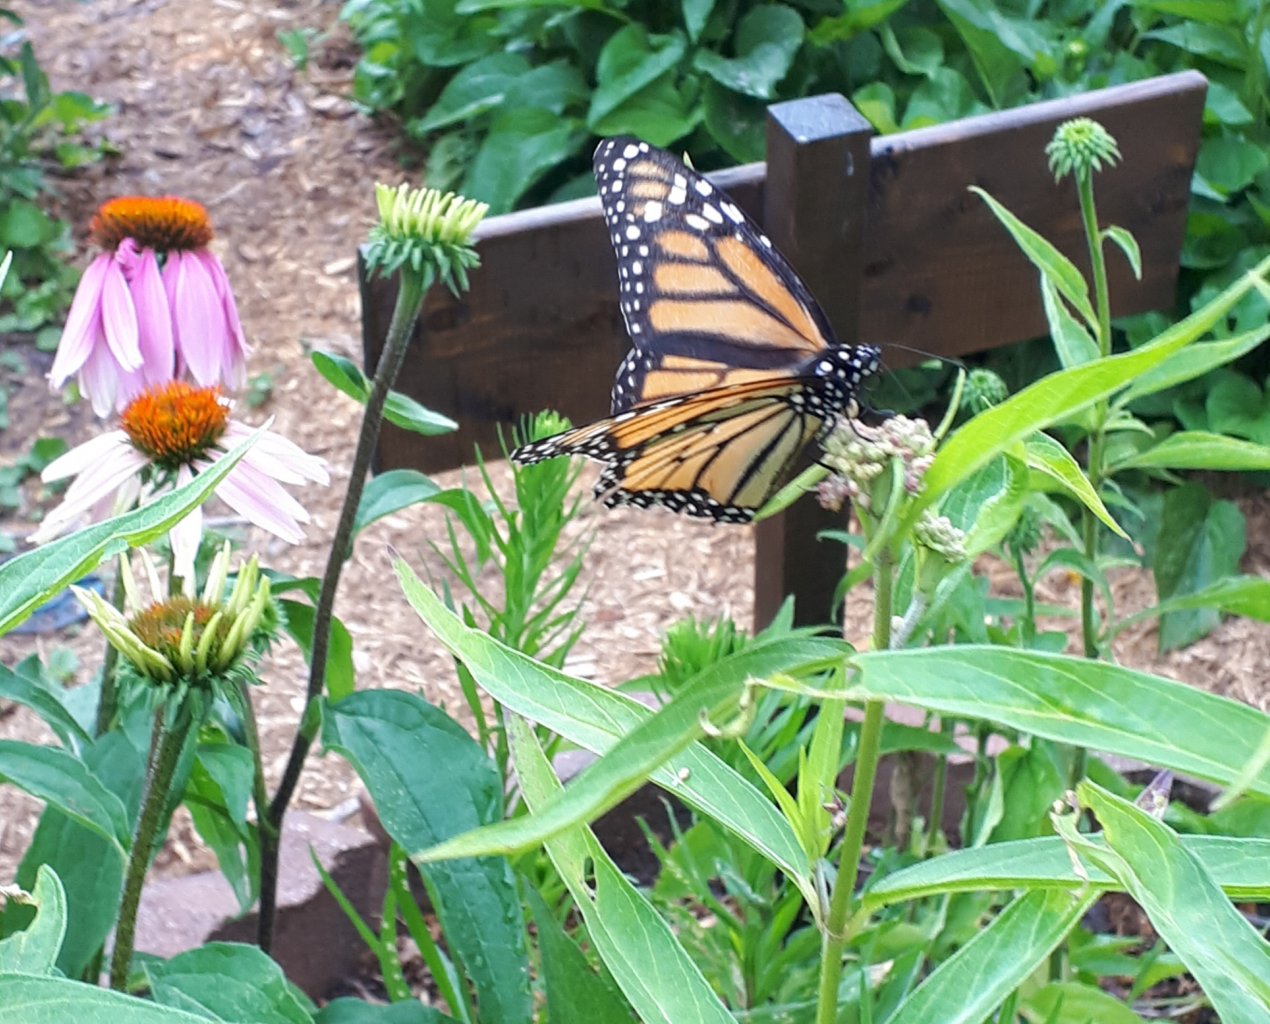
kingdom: Animalia
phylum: Arthropoda
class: Insecta
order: Lepidoptera
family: Nymphalidae
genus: Danaus
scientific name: Danaus plexippus
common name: Monarch
